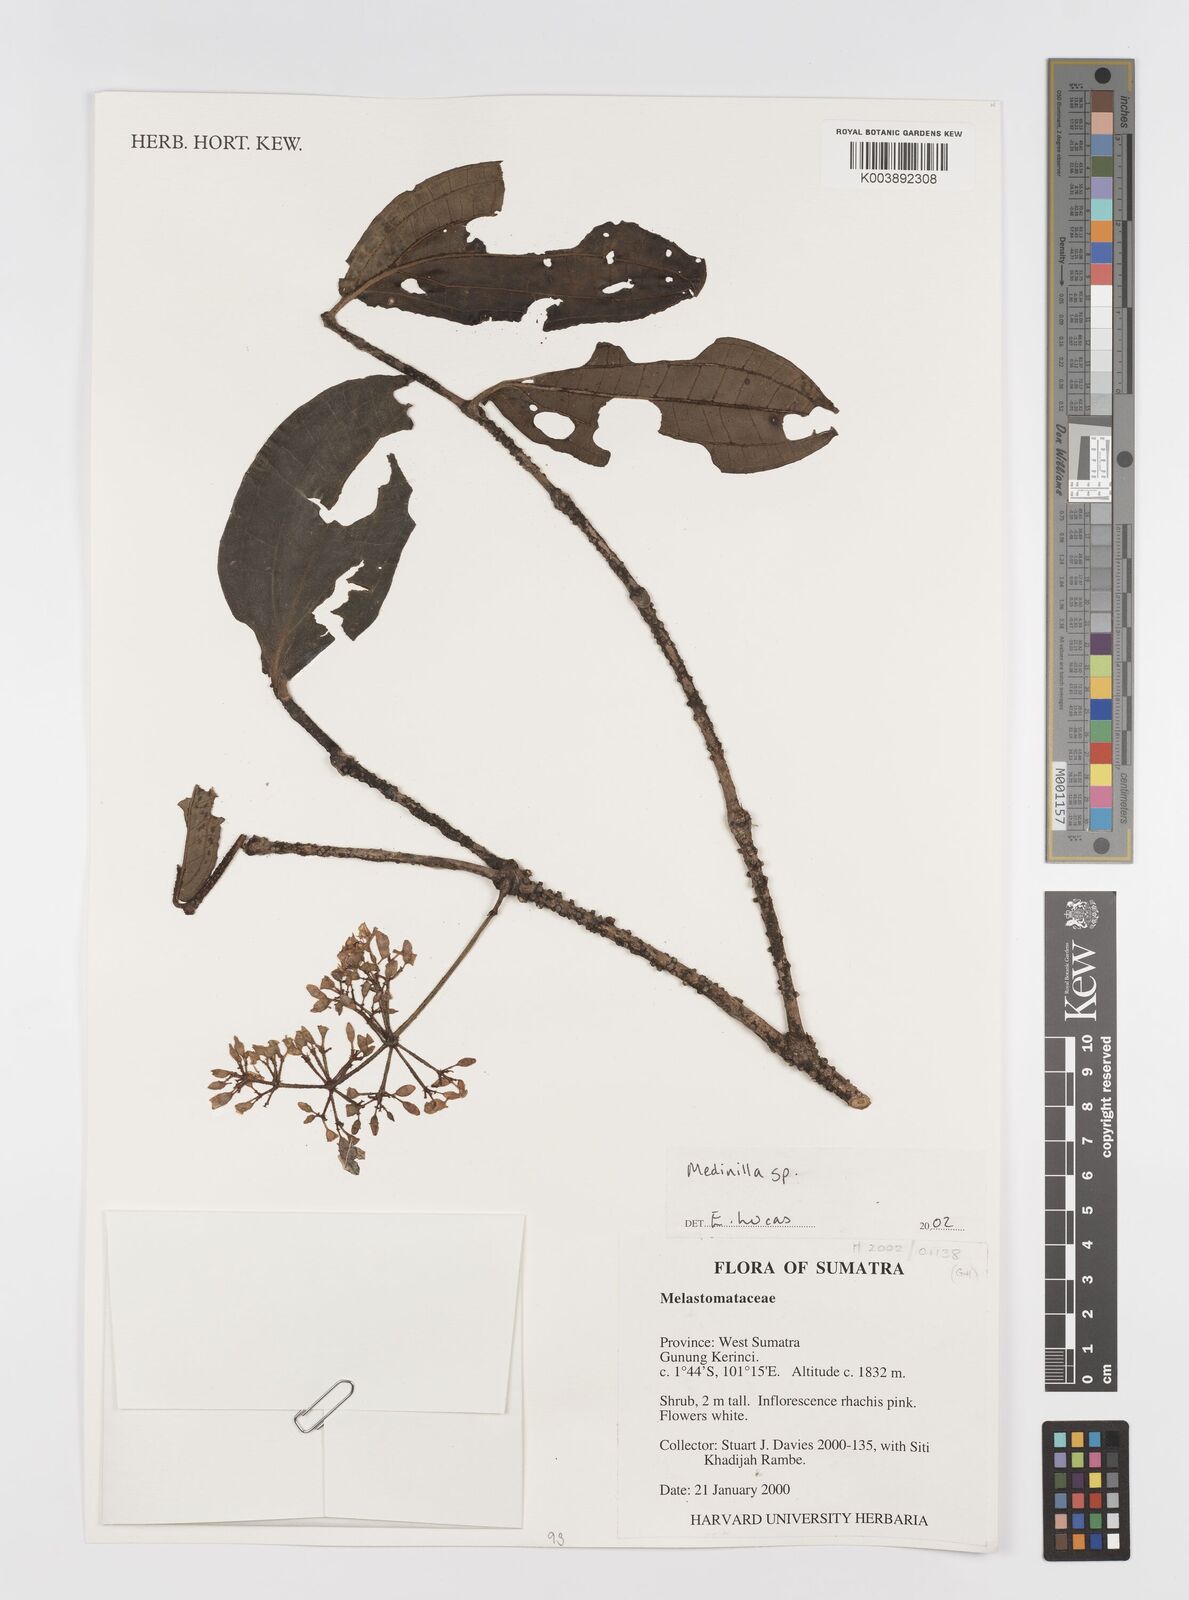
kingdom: Plantae
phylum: Tracheophyta
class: Magnoliopsida
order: Myrtales
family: Melastomataceae
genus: Medinilla
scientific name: Medinilla
